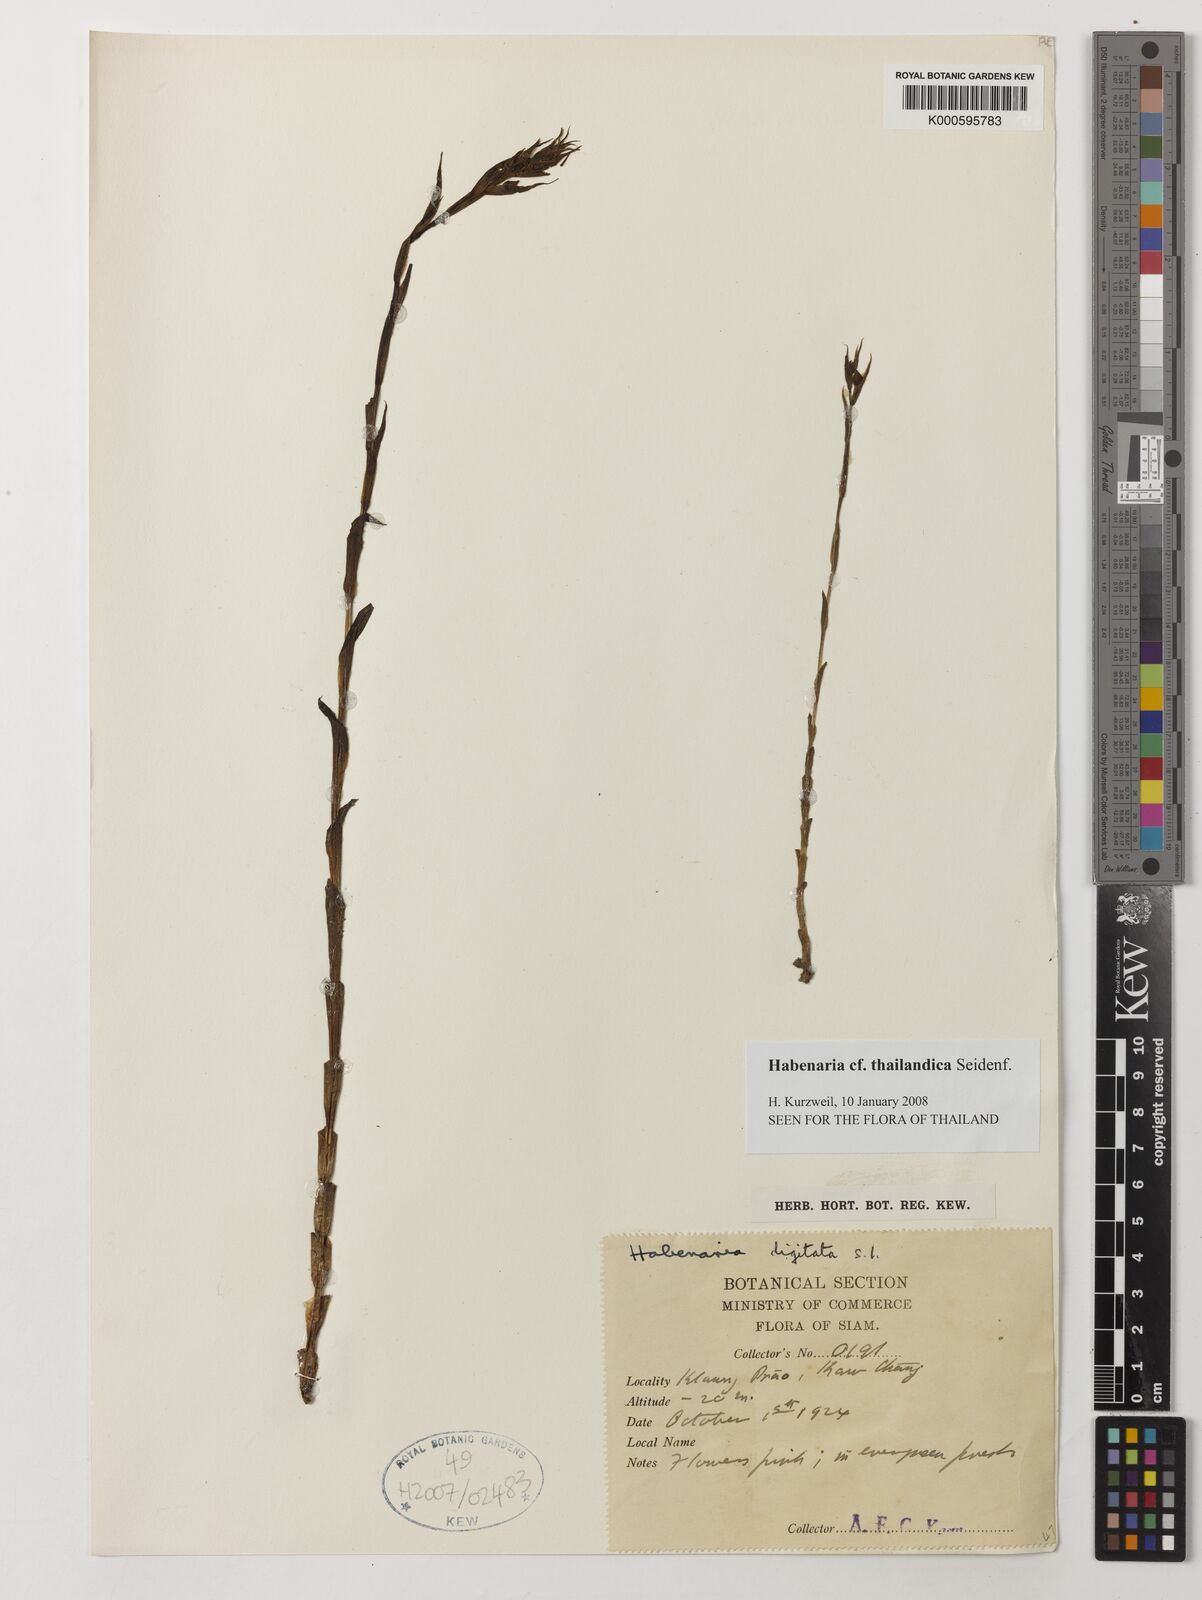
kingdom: Plantae
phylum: Tracheophyta
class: Liliopsida
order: Asparagales
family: Orchidaceae
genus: Habenaria
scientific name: Habenaria gibsonii
